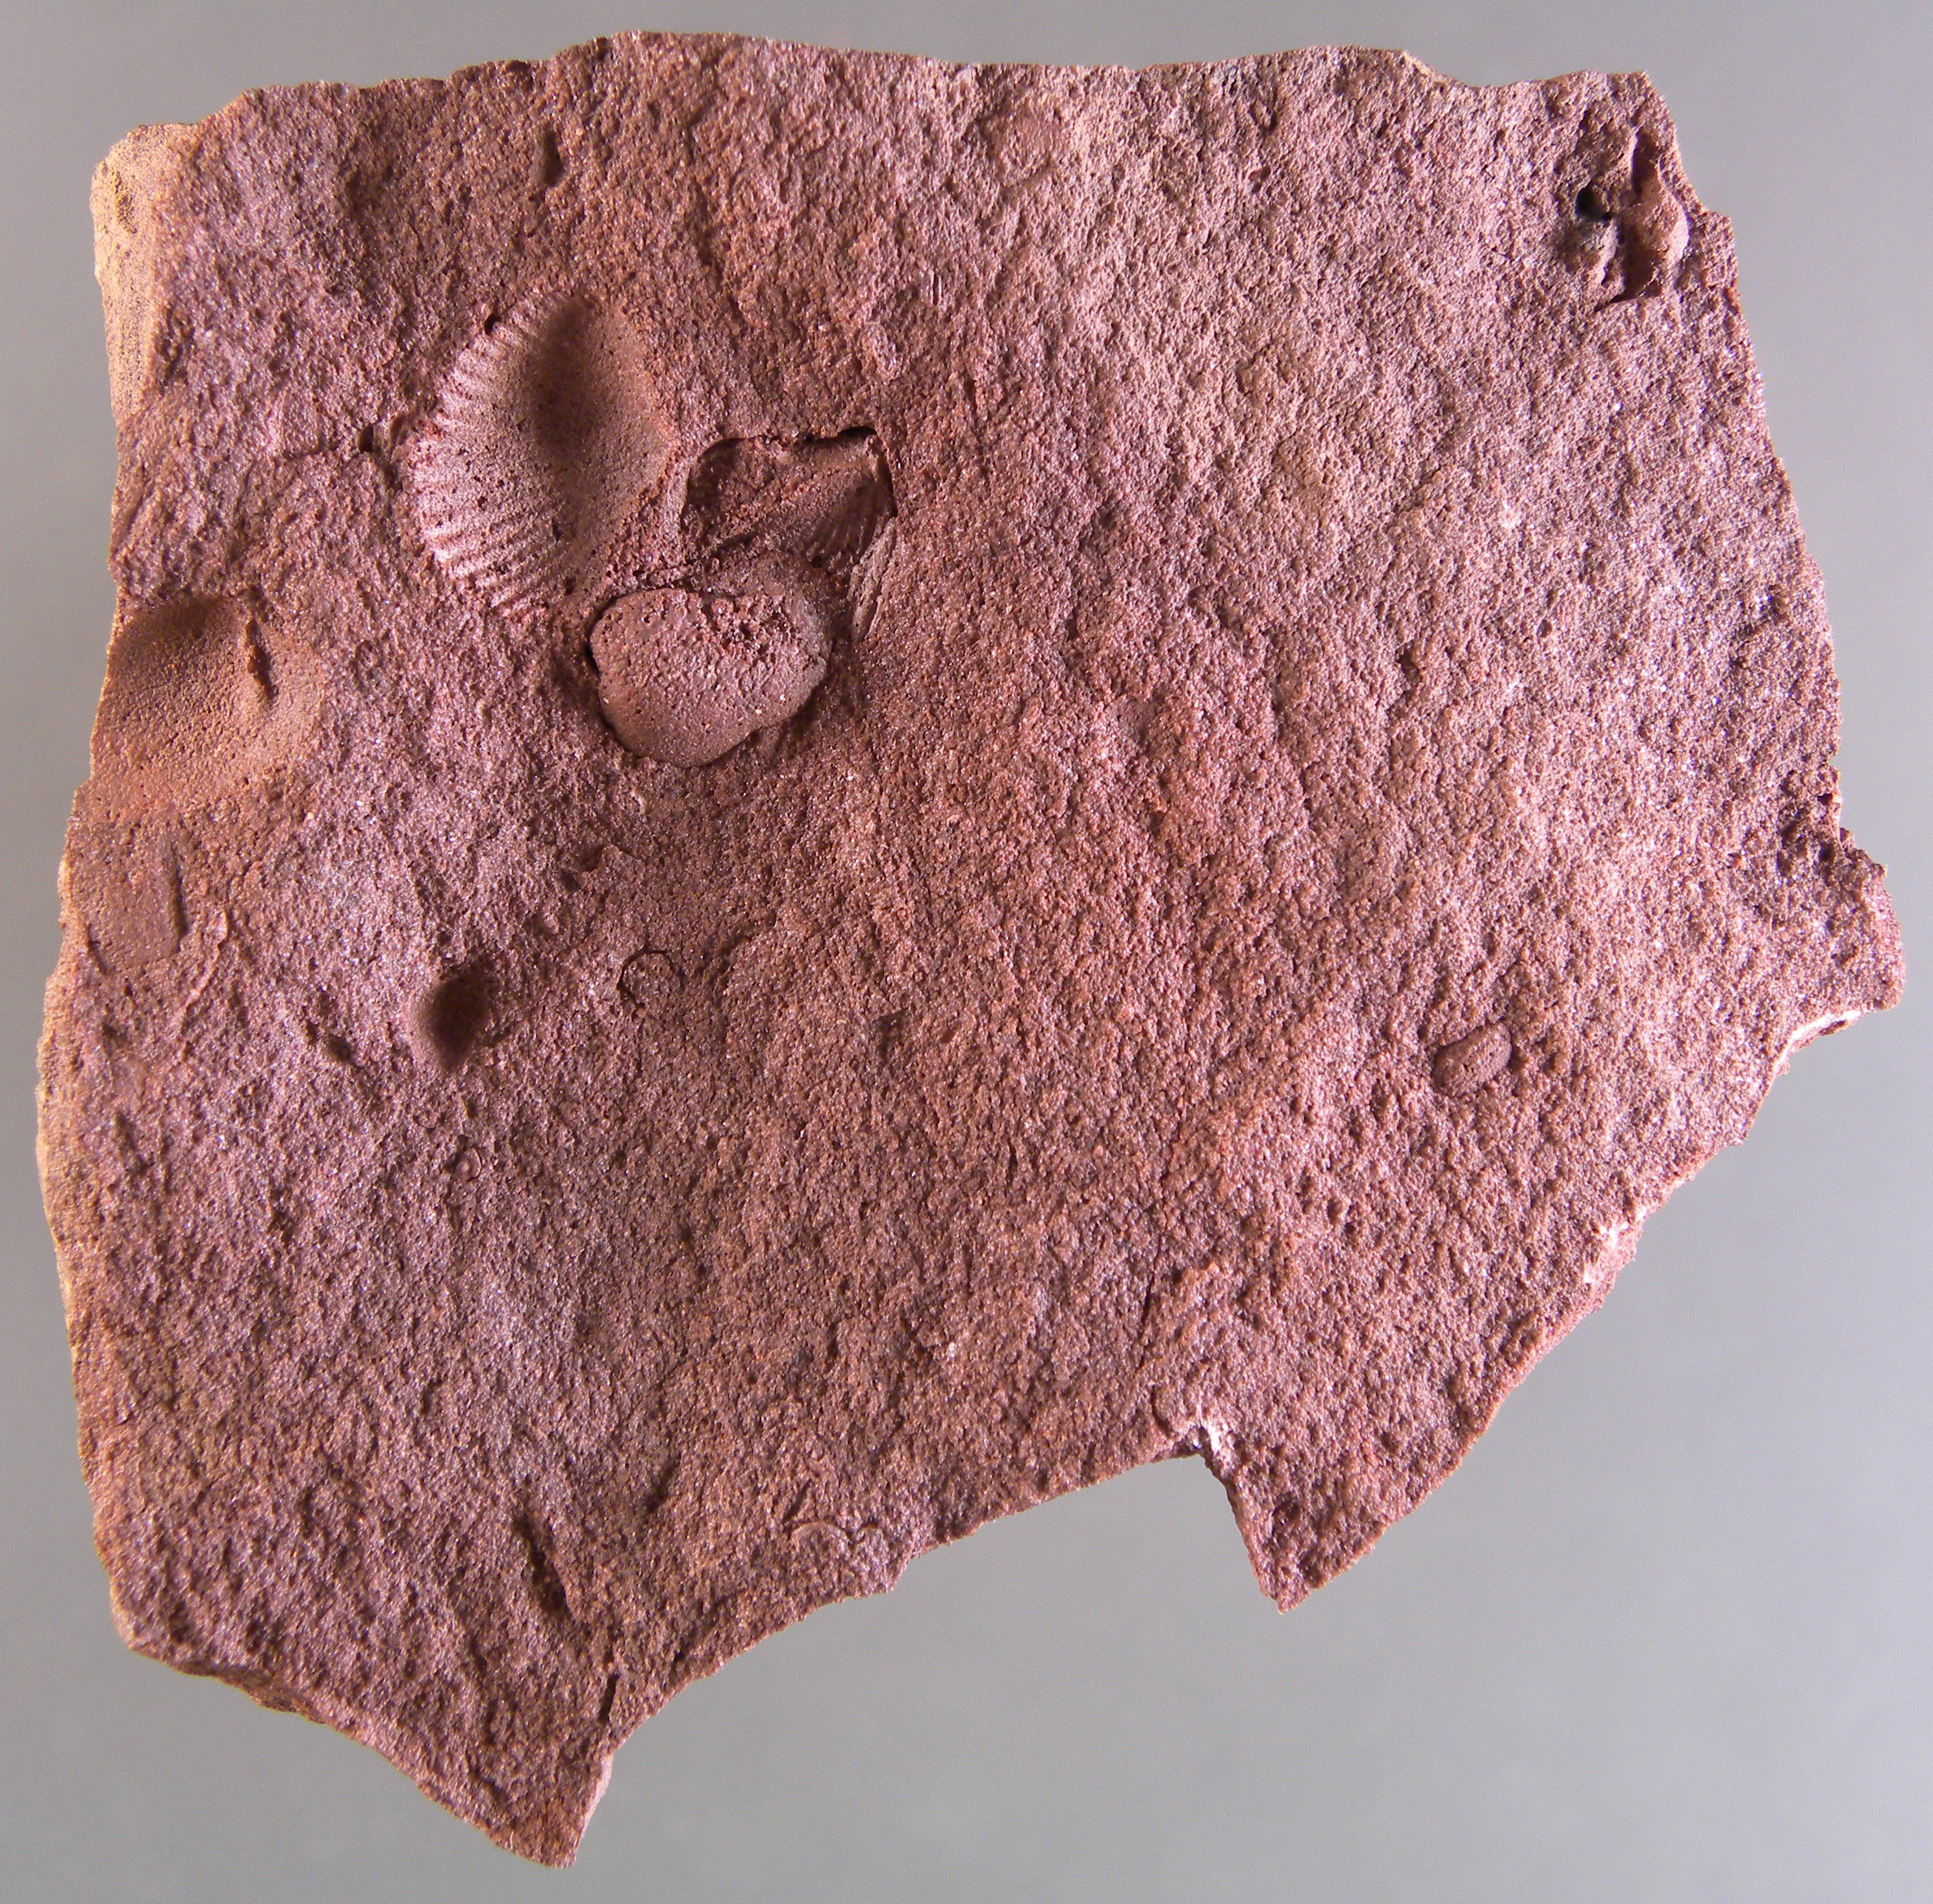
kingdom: Animalia
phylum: Mollusca
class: Bivalvia
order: Cardiida
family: Cardiidae
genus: Cerastoderma
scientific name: Cerastoderma sociale
